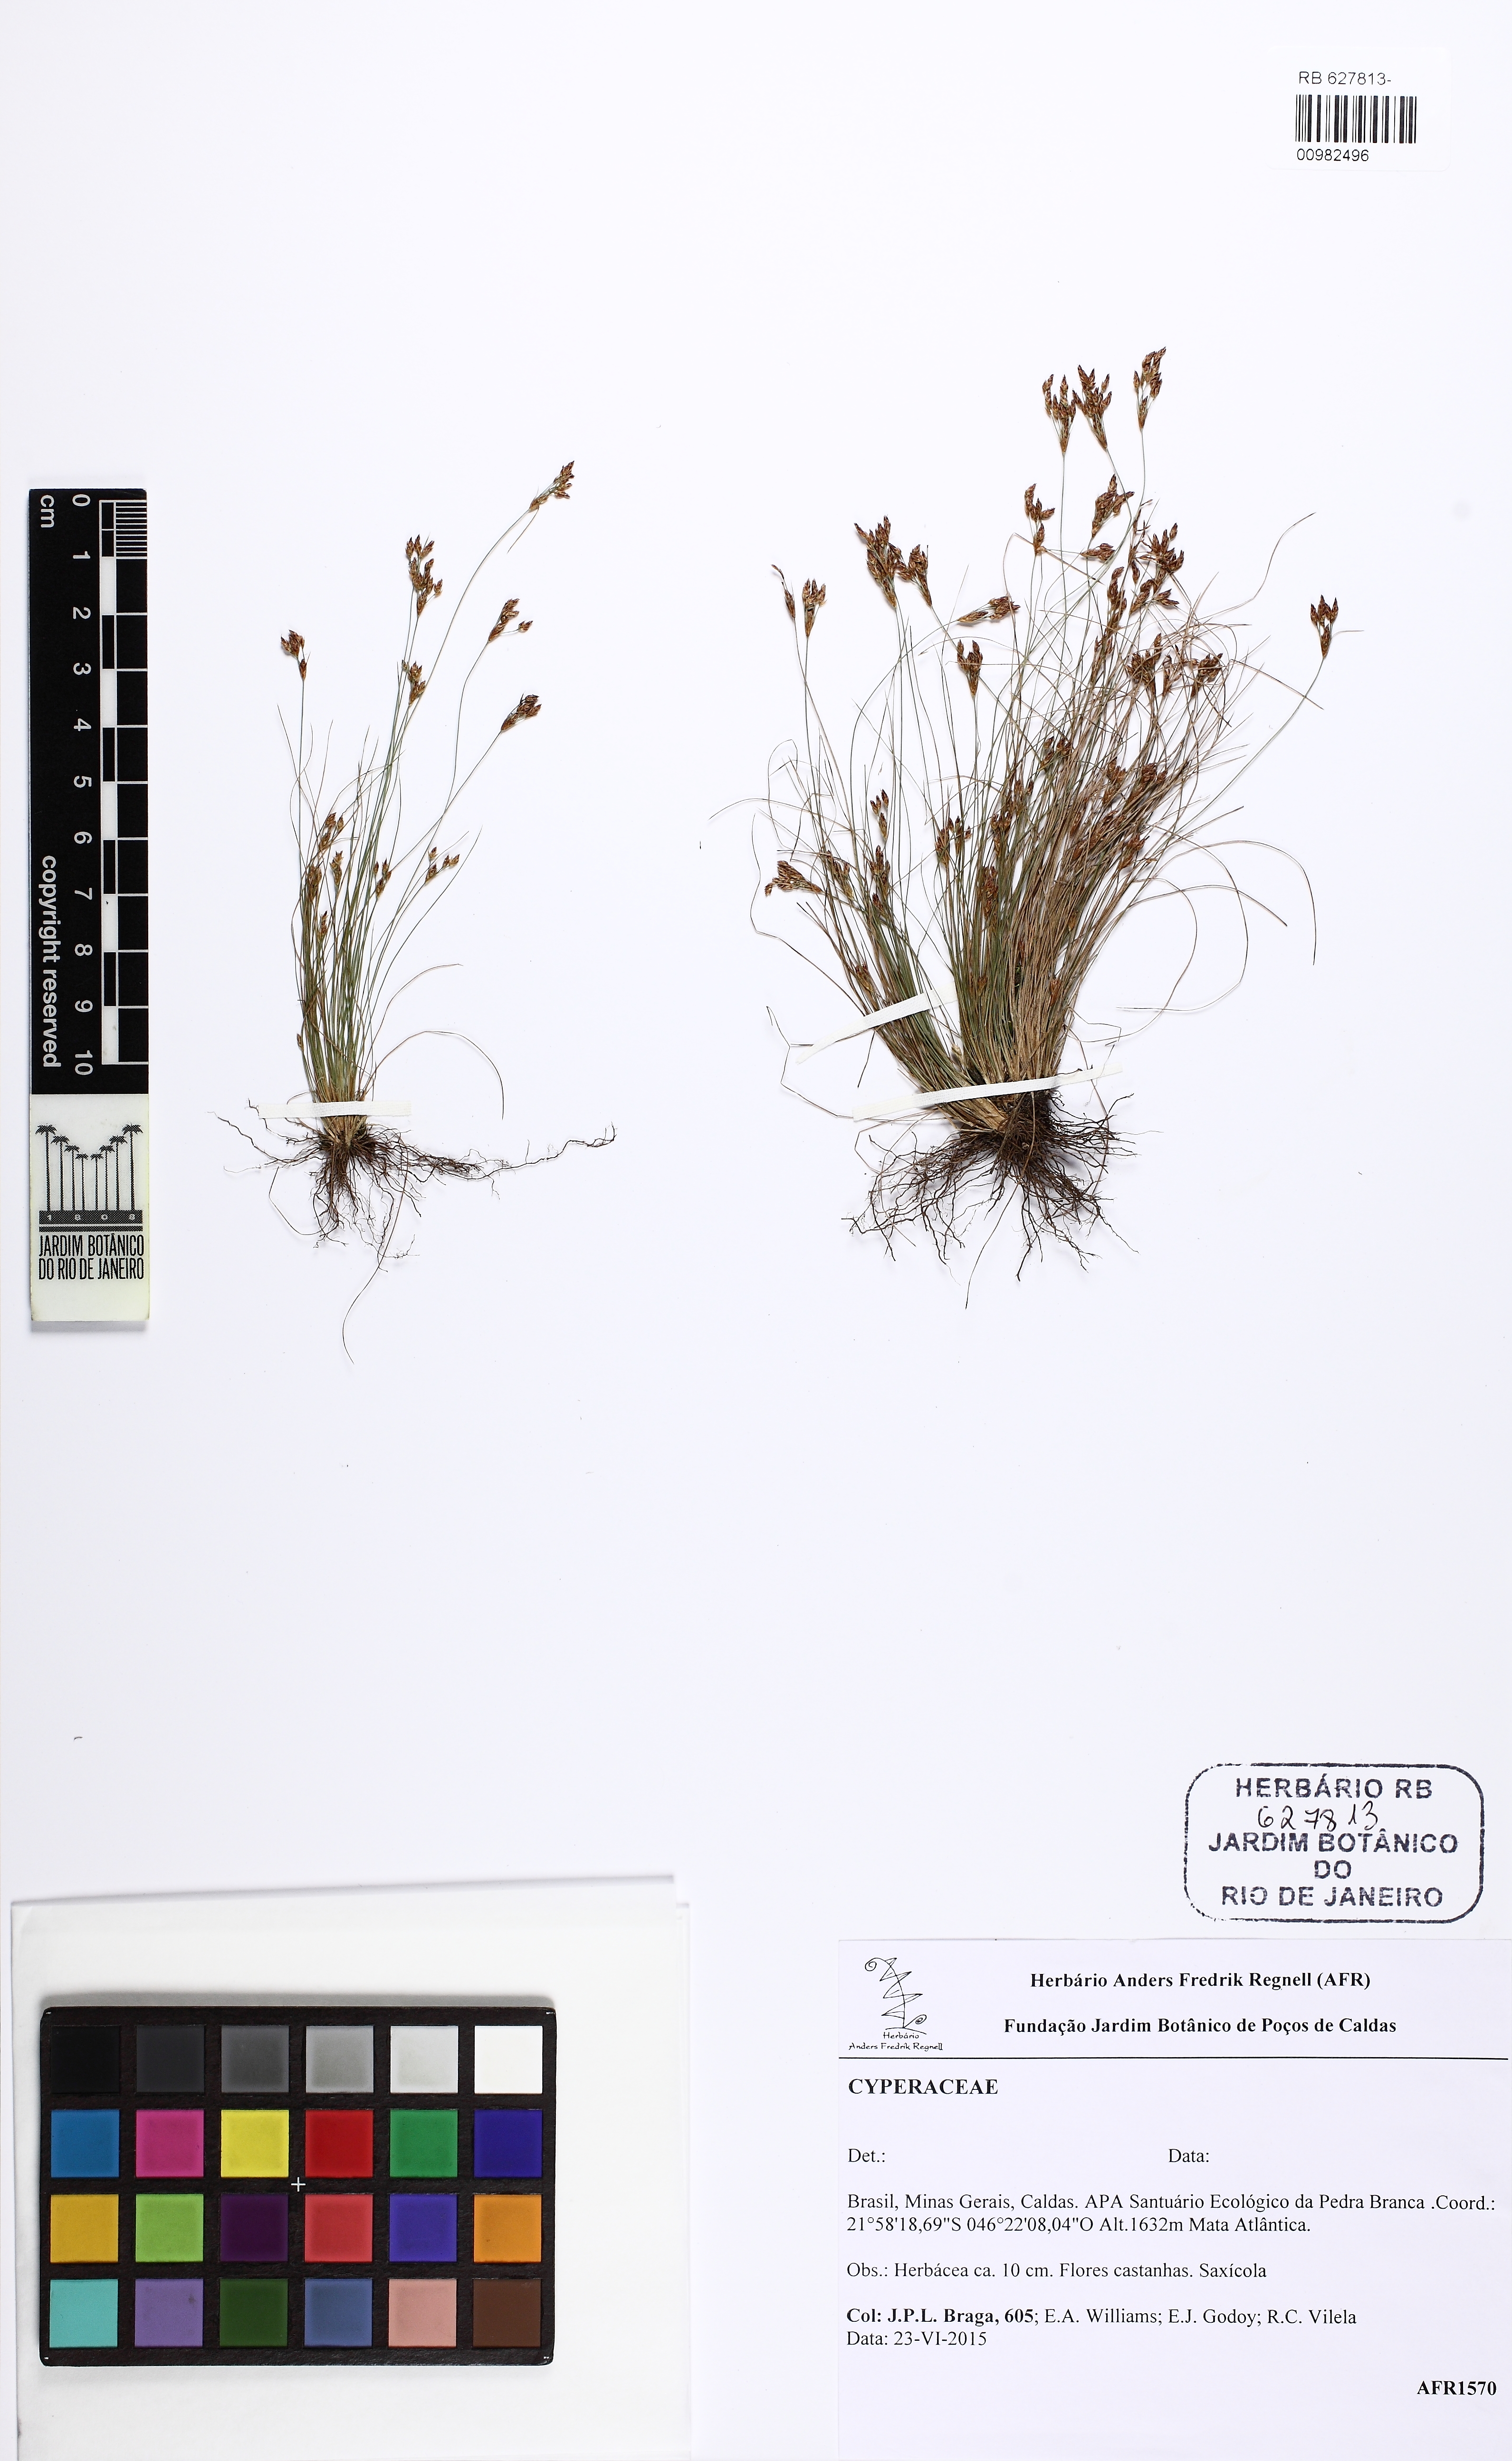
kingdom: Plantae
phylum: Tracheophyta
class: Liliopsida
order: Poales
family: Cyperaceae
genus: Bulbostylis
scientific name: Bulbostylis
